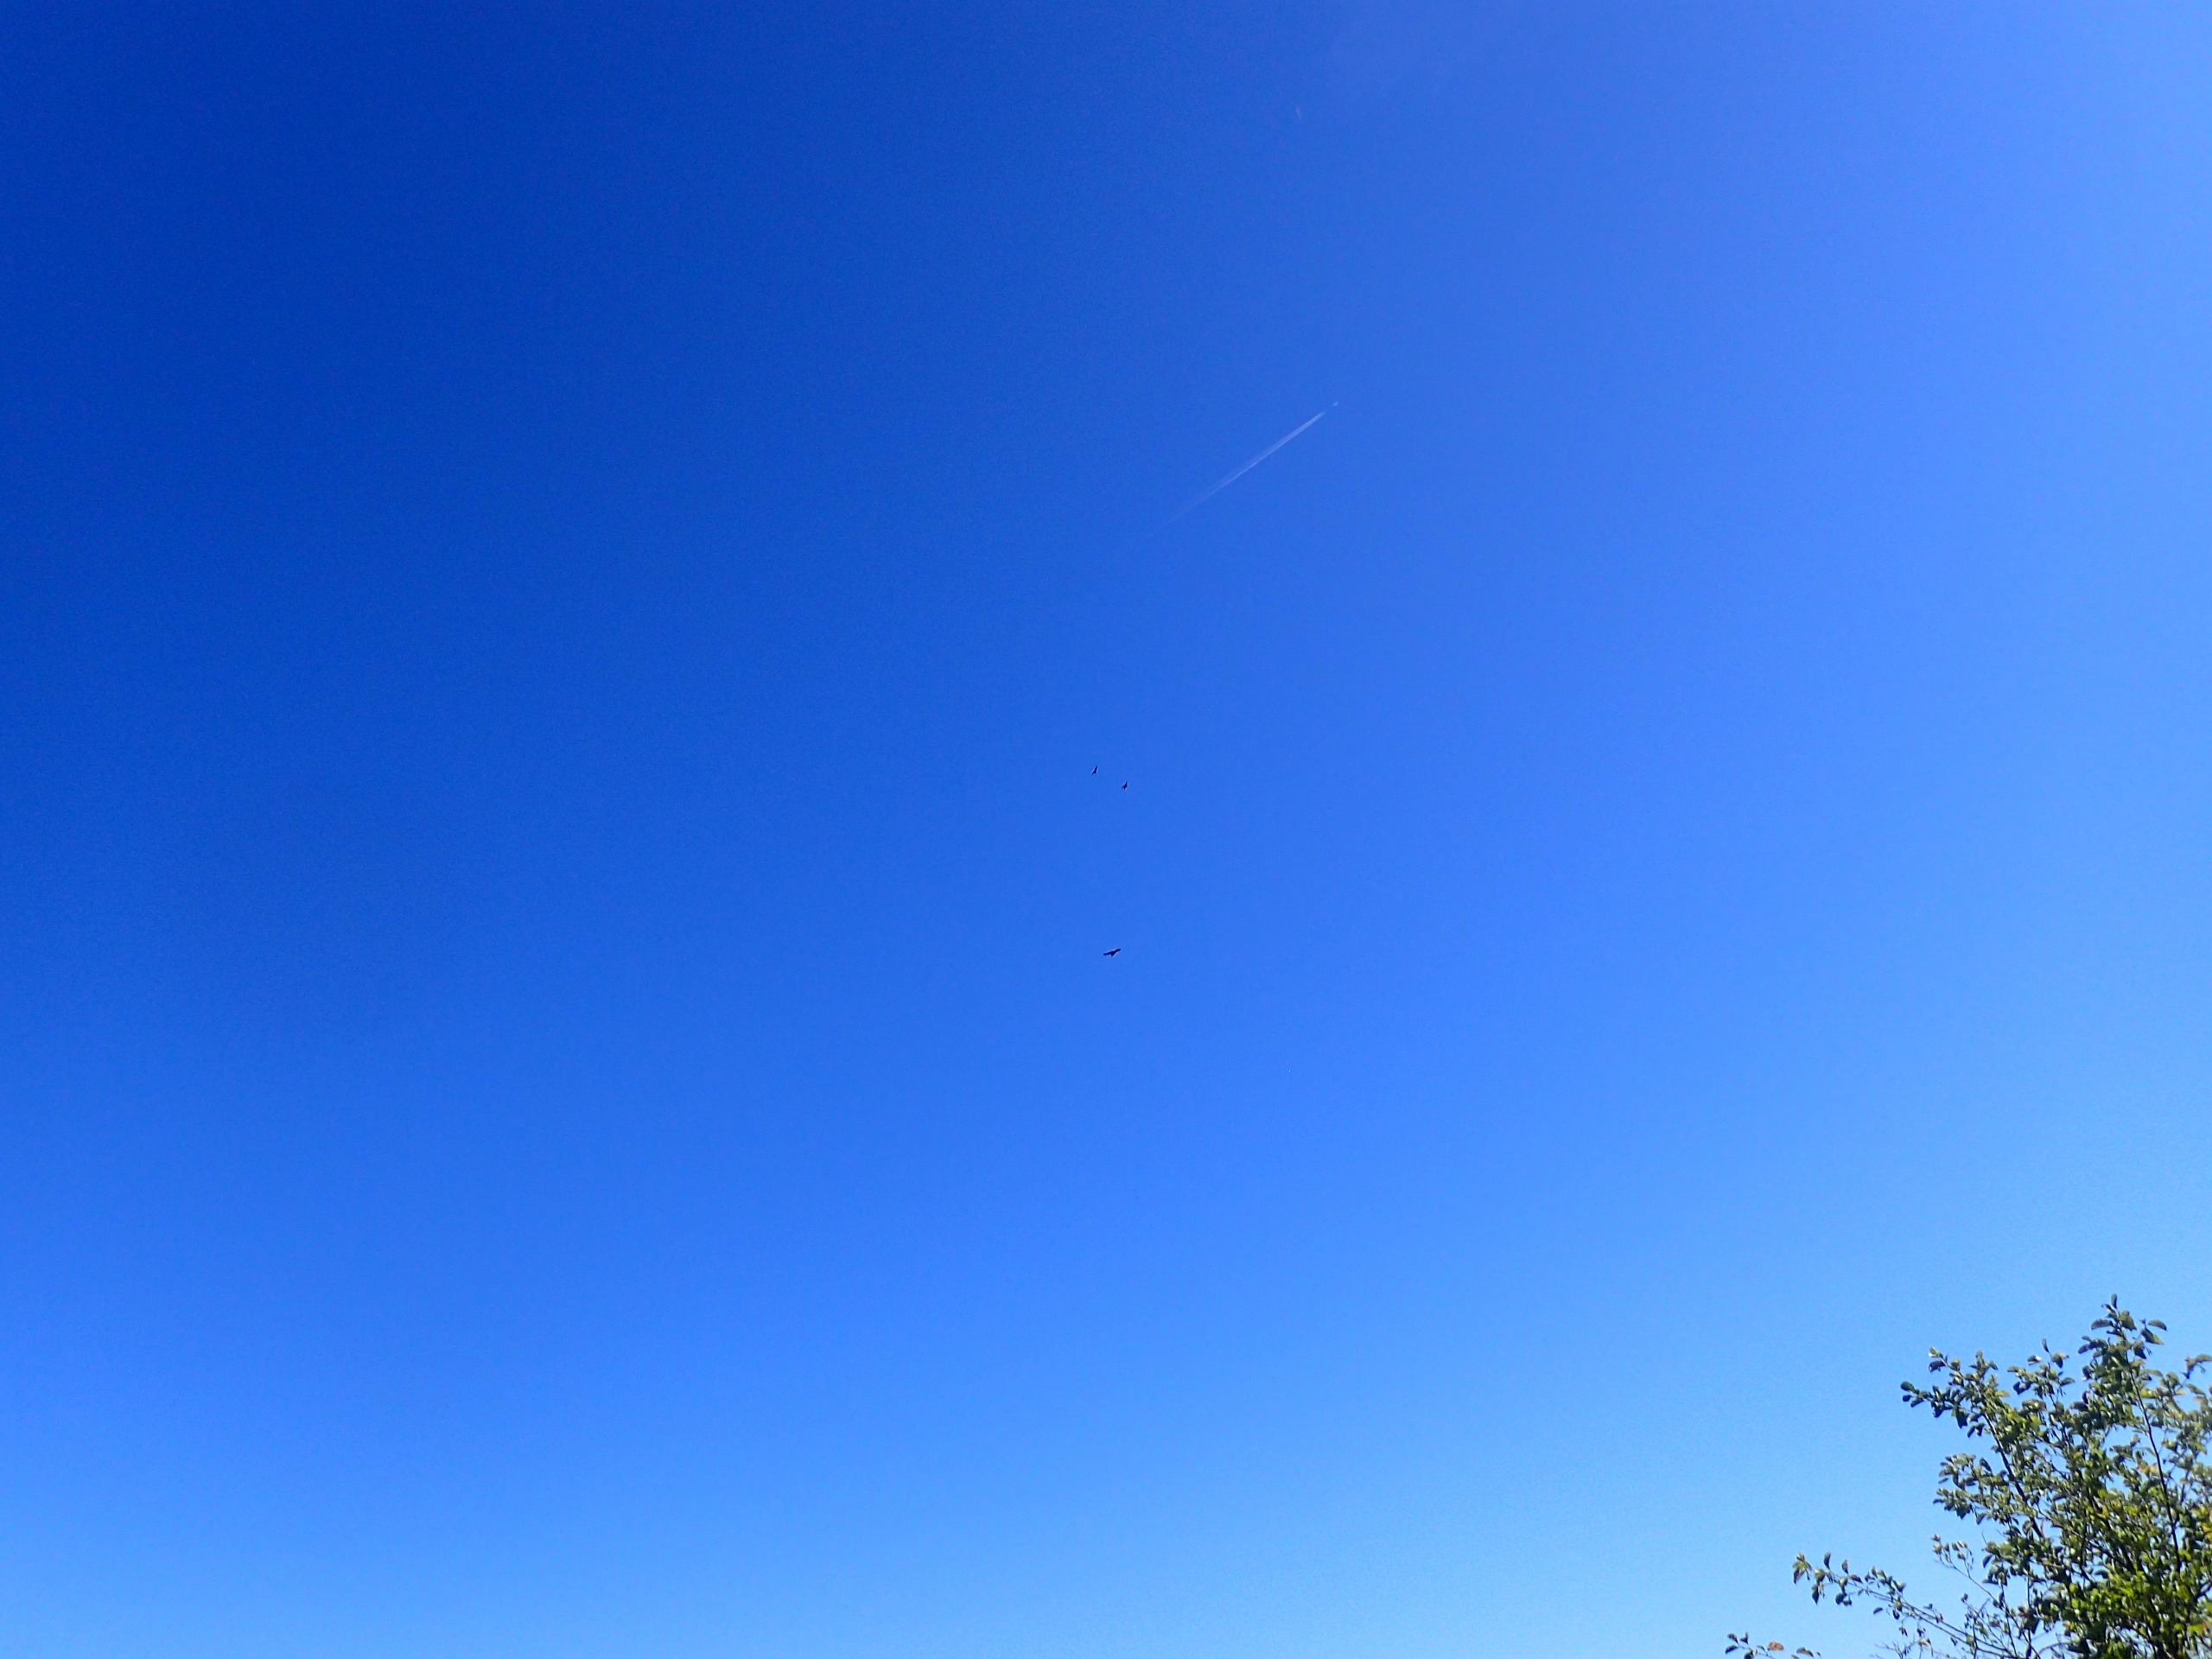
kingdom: Animalia
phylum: Chordata
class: Aves
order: Accipitriformes
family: Accipitridae
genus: Buteo
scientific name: Buteo buteo
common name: Musvåge
